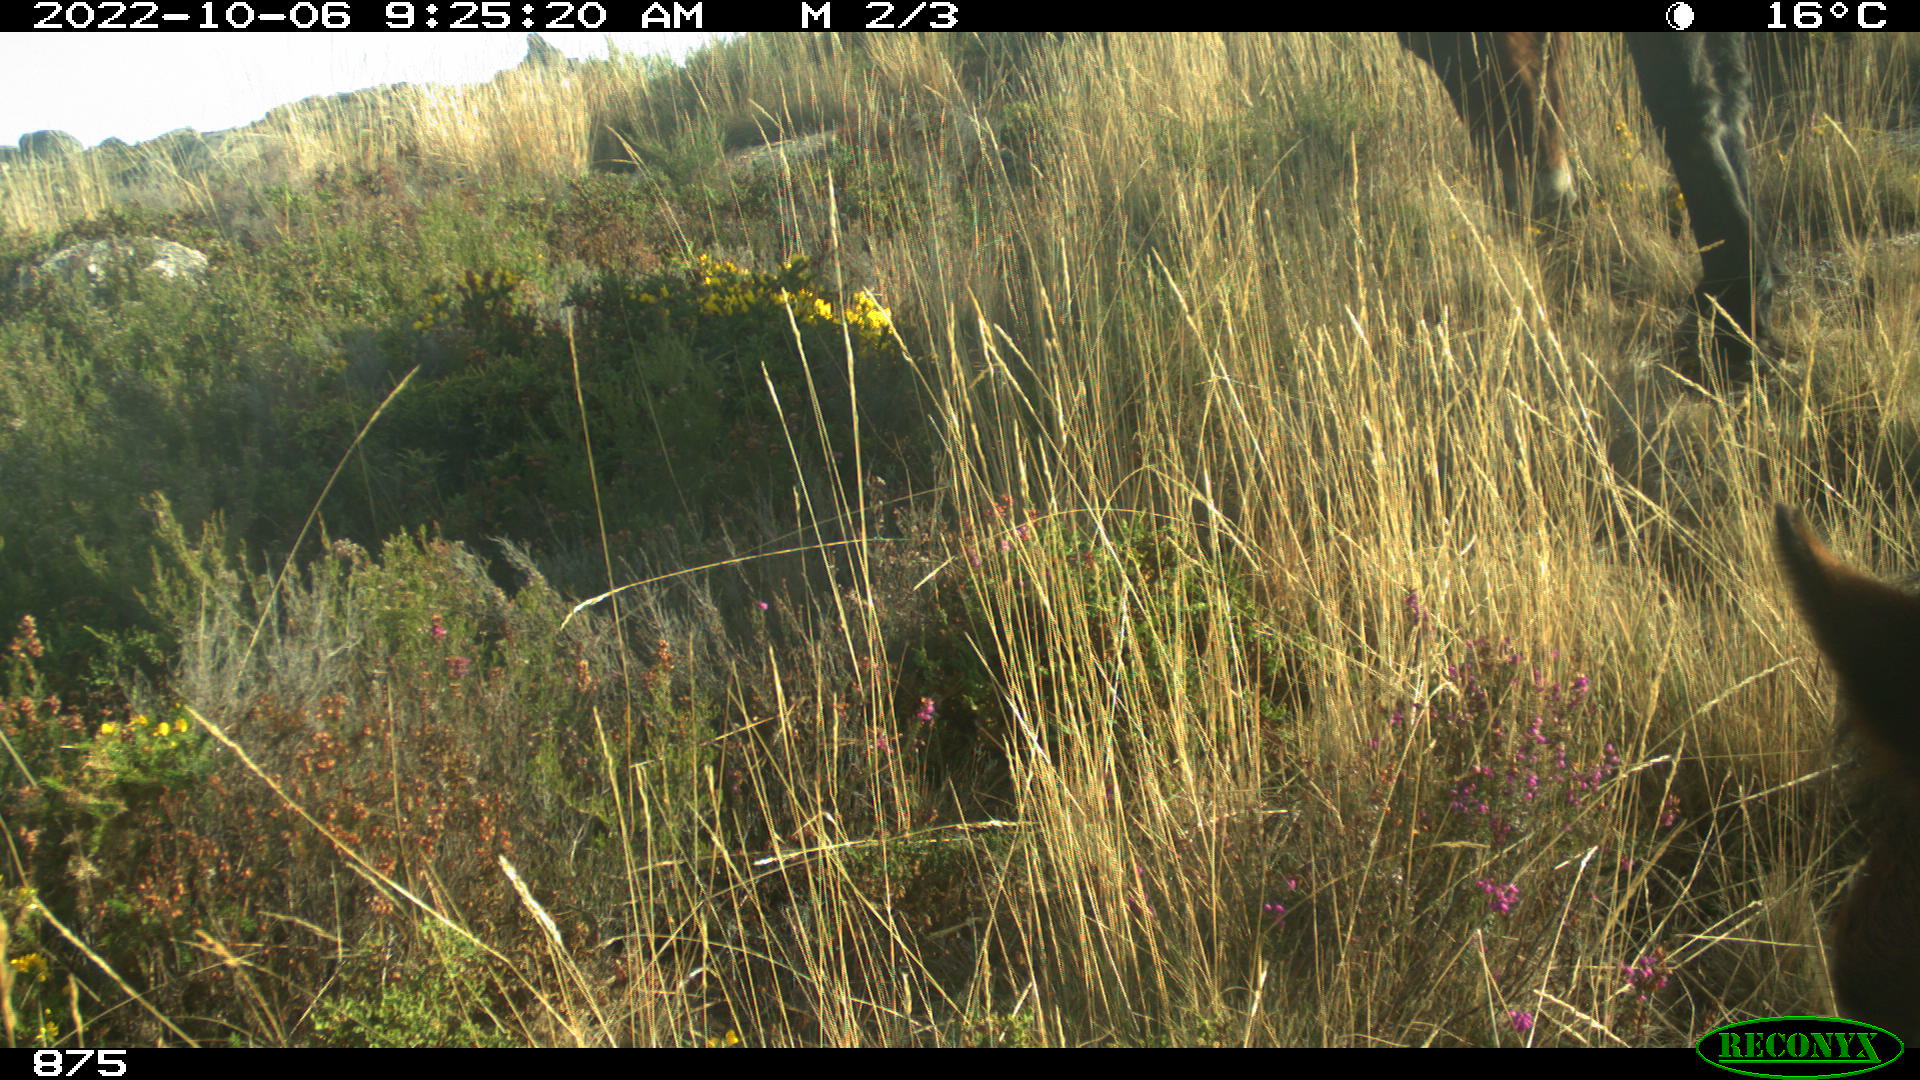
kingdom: Animalia
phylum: Chordata
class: Mammalia
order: Perissodactyla
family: Equidae
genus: Equus
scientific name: Equus caballus
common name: Horse
